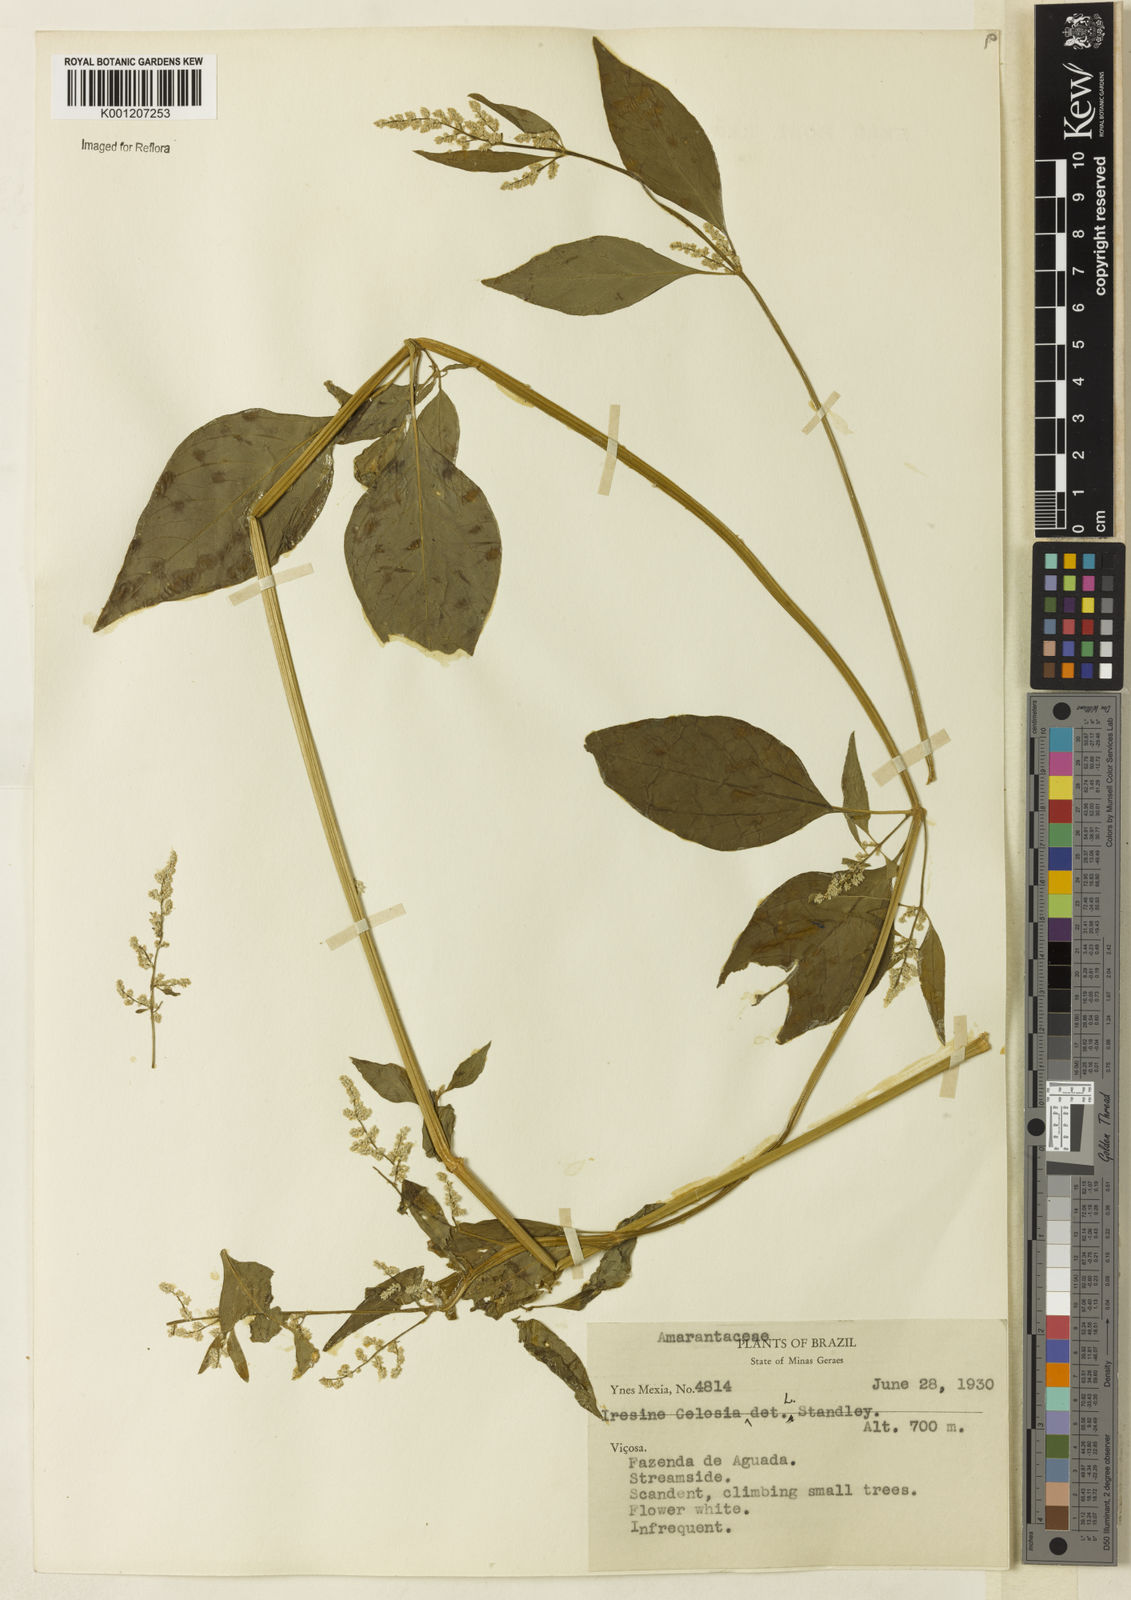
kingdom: Plantae
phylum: Tracheophyta
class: Magnoliopsida
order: Caryophyllales
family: Amaranthaceae
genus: Iresine
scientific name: Iresine rhizomatosa
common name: Juda's-bush
